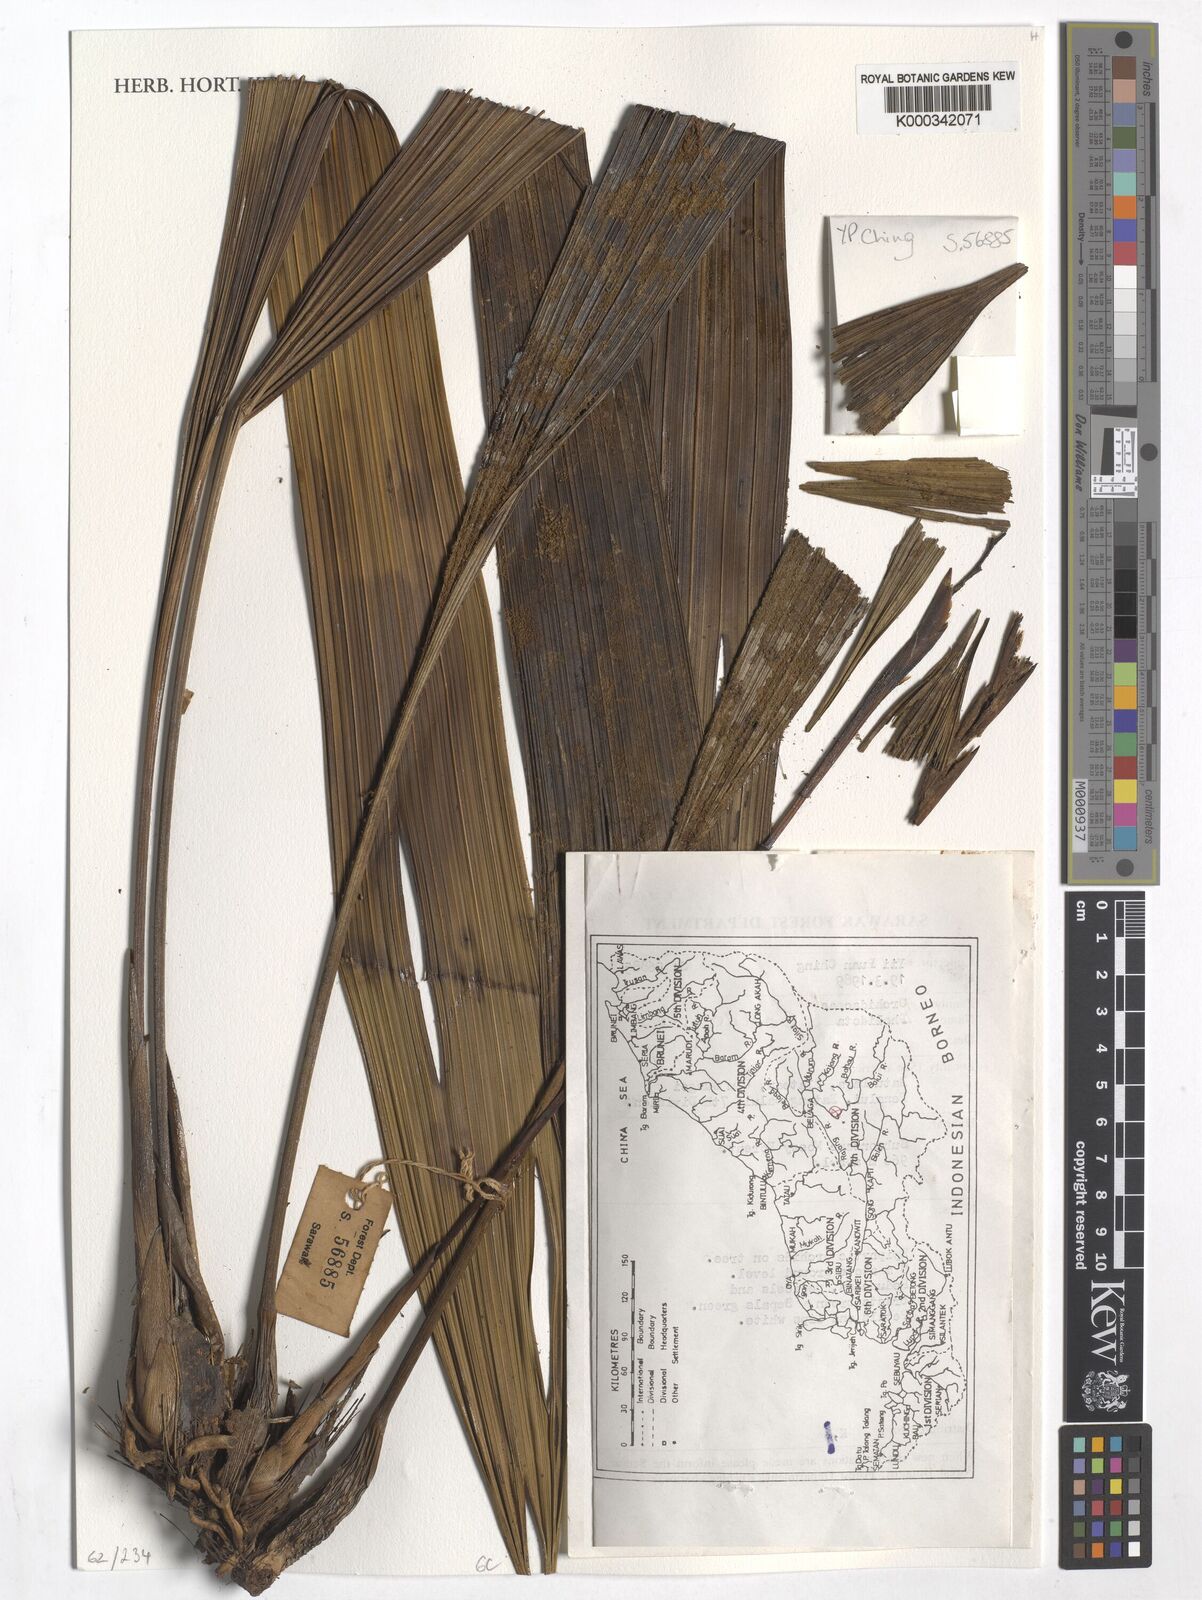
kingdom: Plantae
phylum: Tracheophyta
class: Liliopsida
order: Asparagales
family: Orchidaceae
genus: Coelogyne
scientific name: Coelogyne
